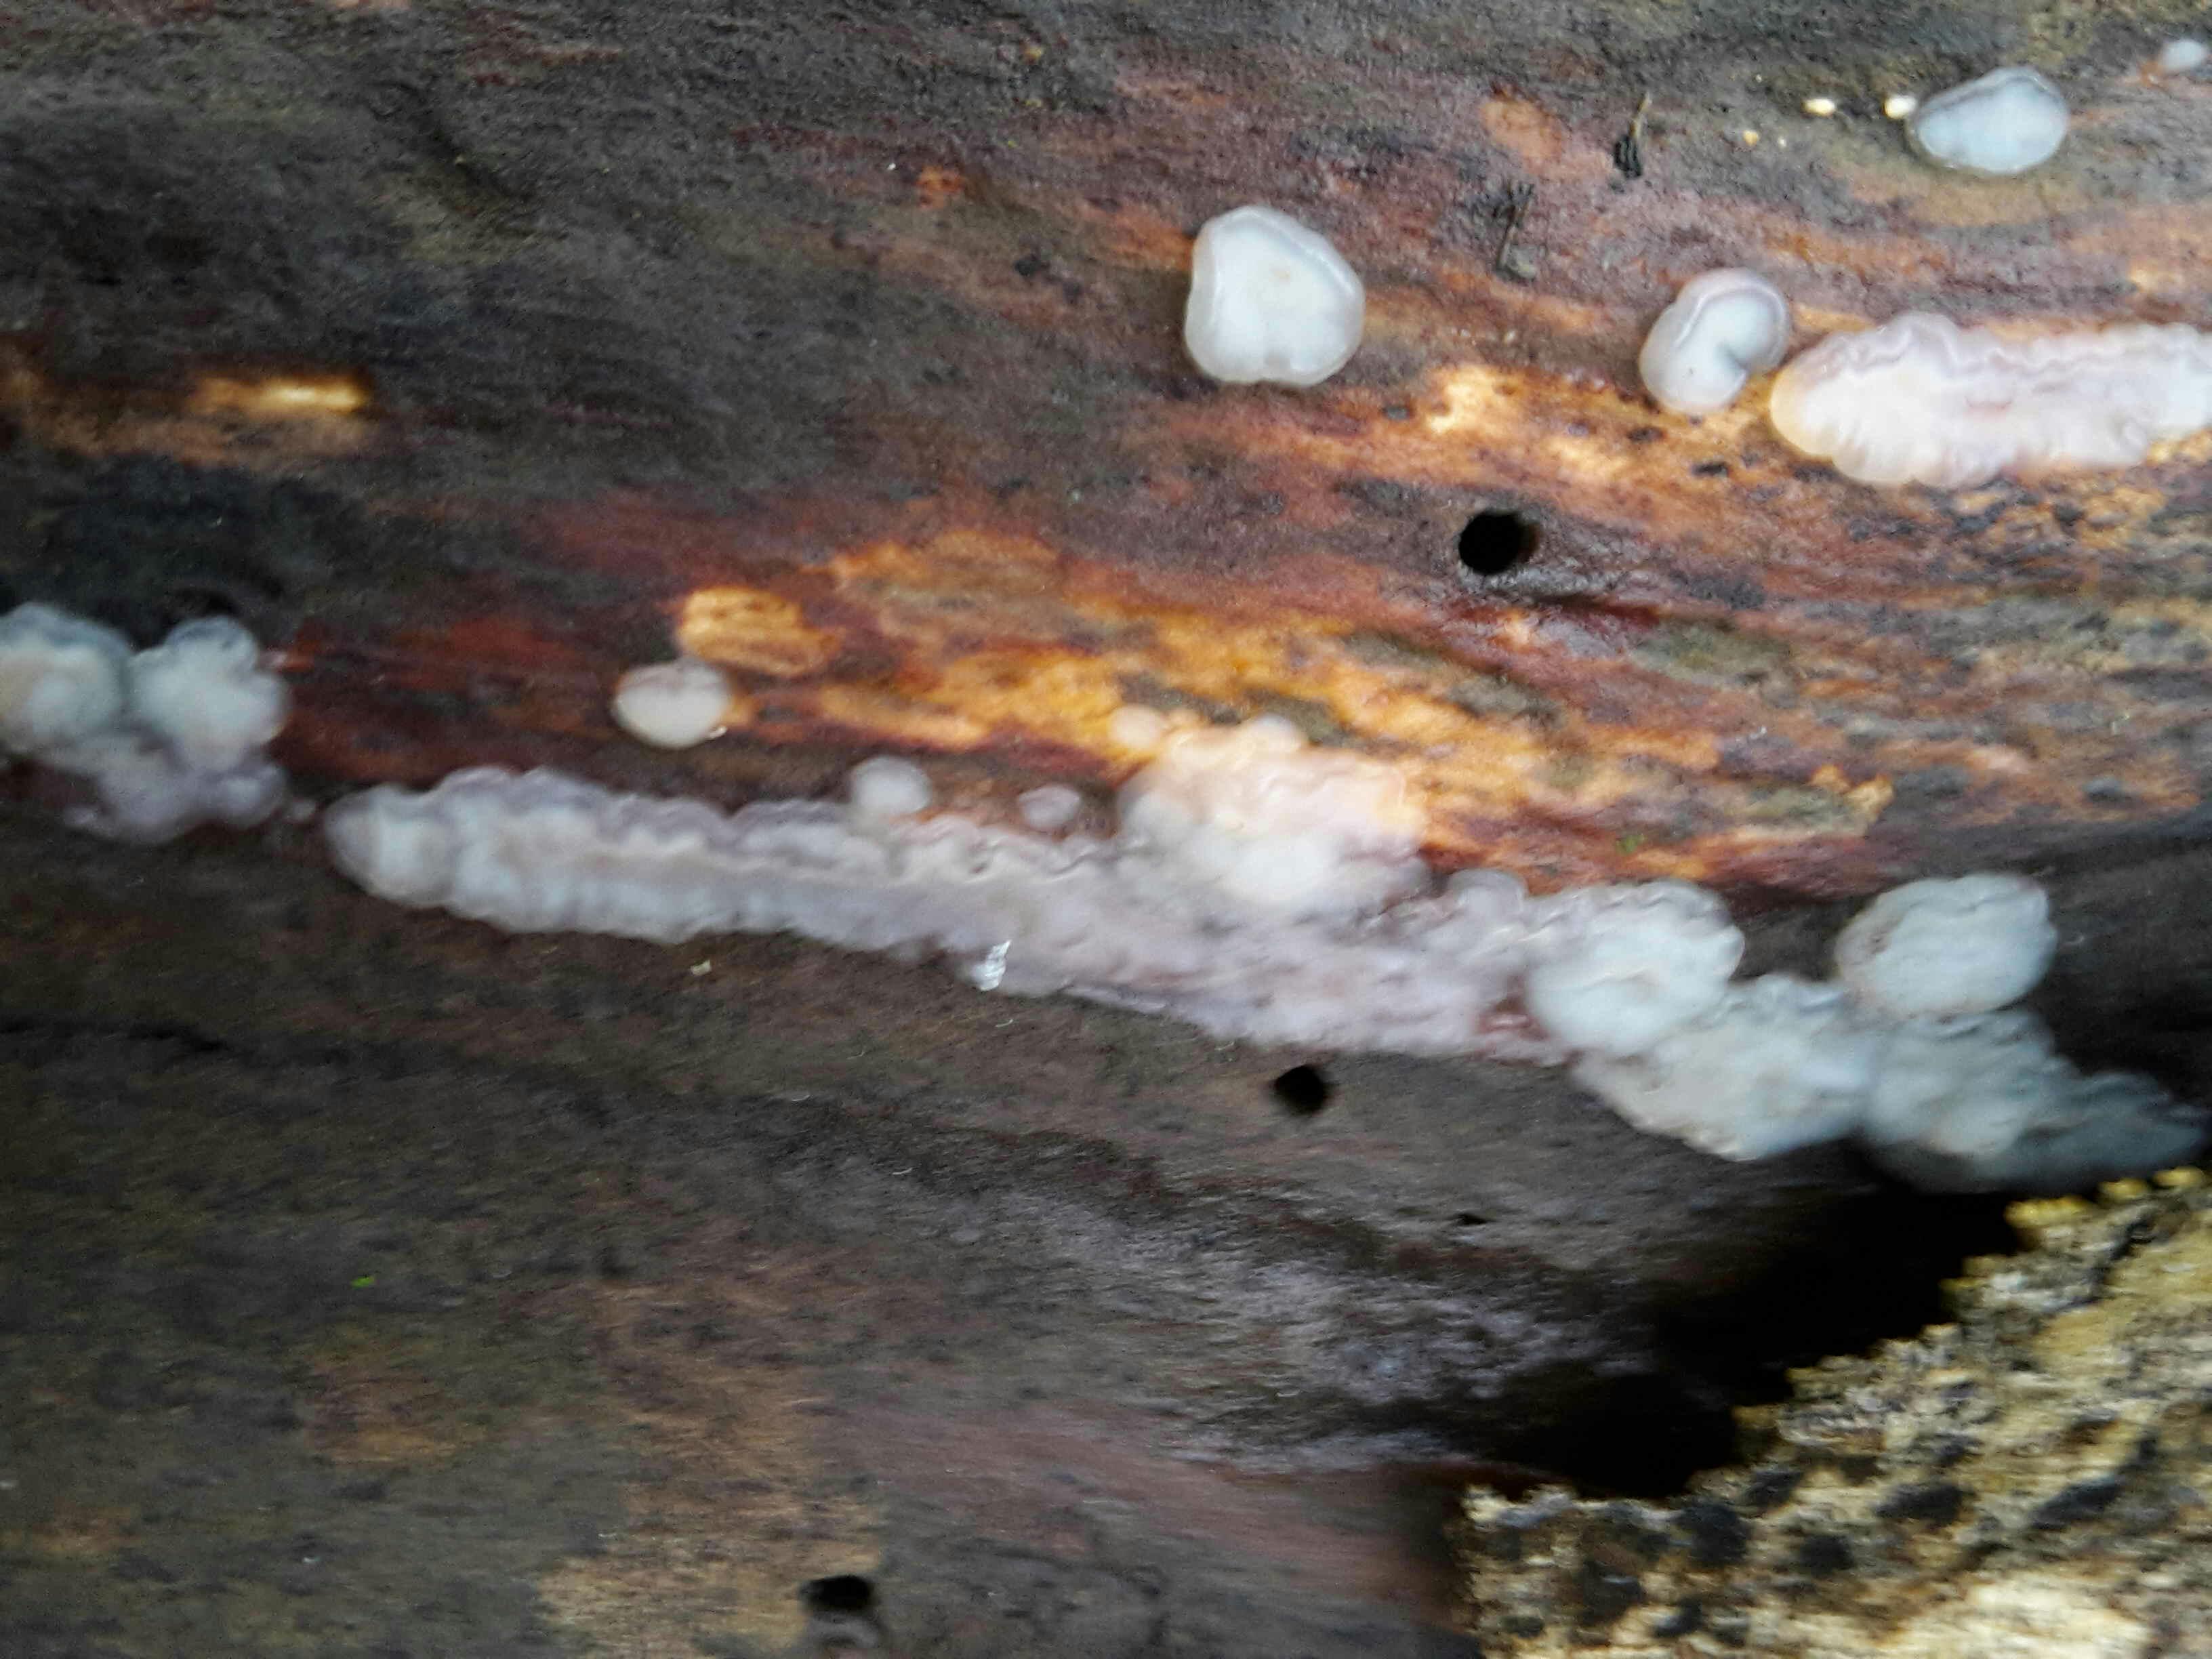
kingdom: Fungi
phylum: Basidiomycota
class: Agaricomycetes
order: Auriculariales
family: Auriculariaceae
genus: Exidia
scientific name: Exidia thuretiana
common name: hvidlig bævretop
